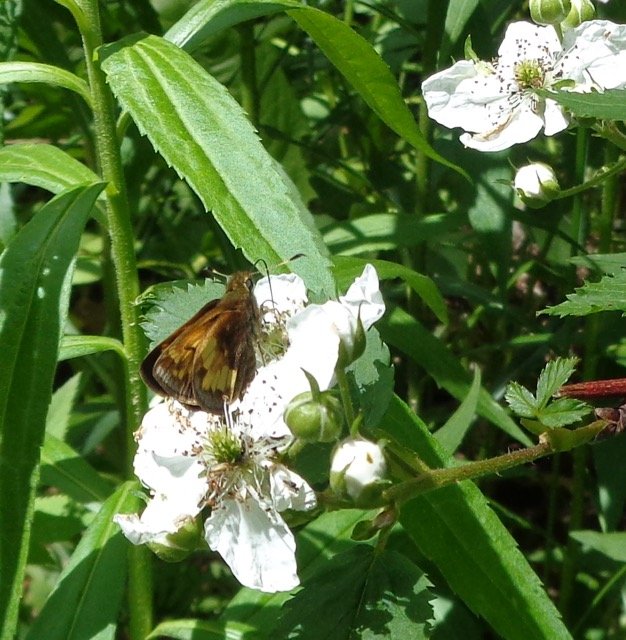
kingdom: Animalia
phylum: Arthropoda
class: Insecta
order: Lepidoptera
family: Hesperiidae
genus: Lon
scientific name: Lon hobomok
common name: Hobomok Skipper
